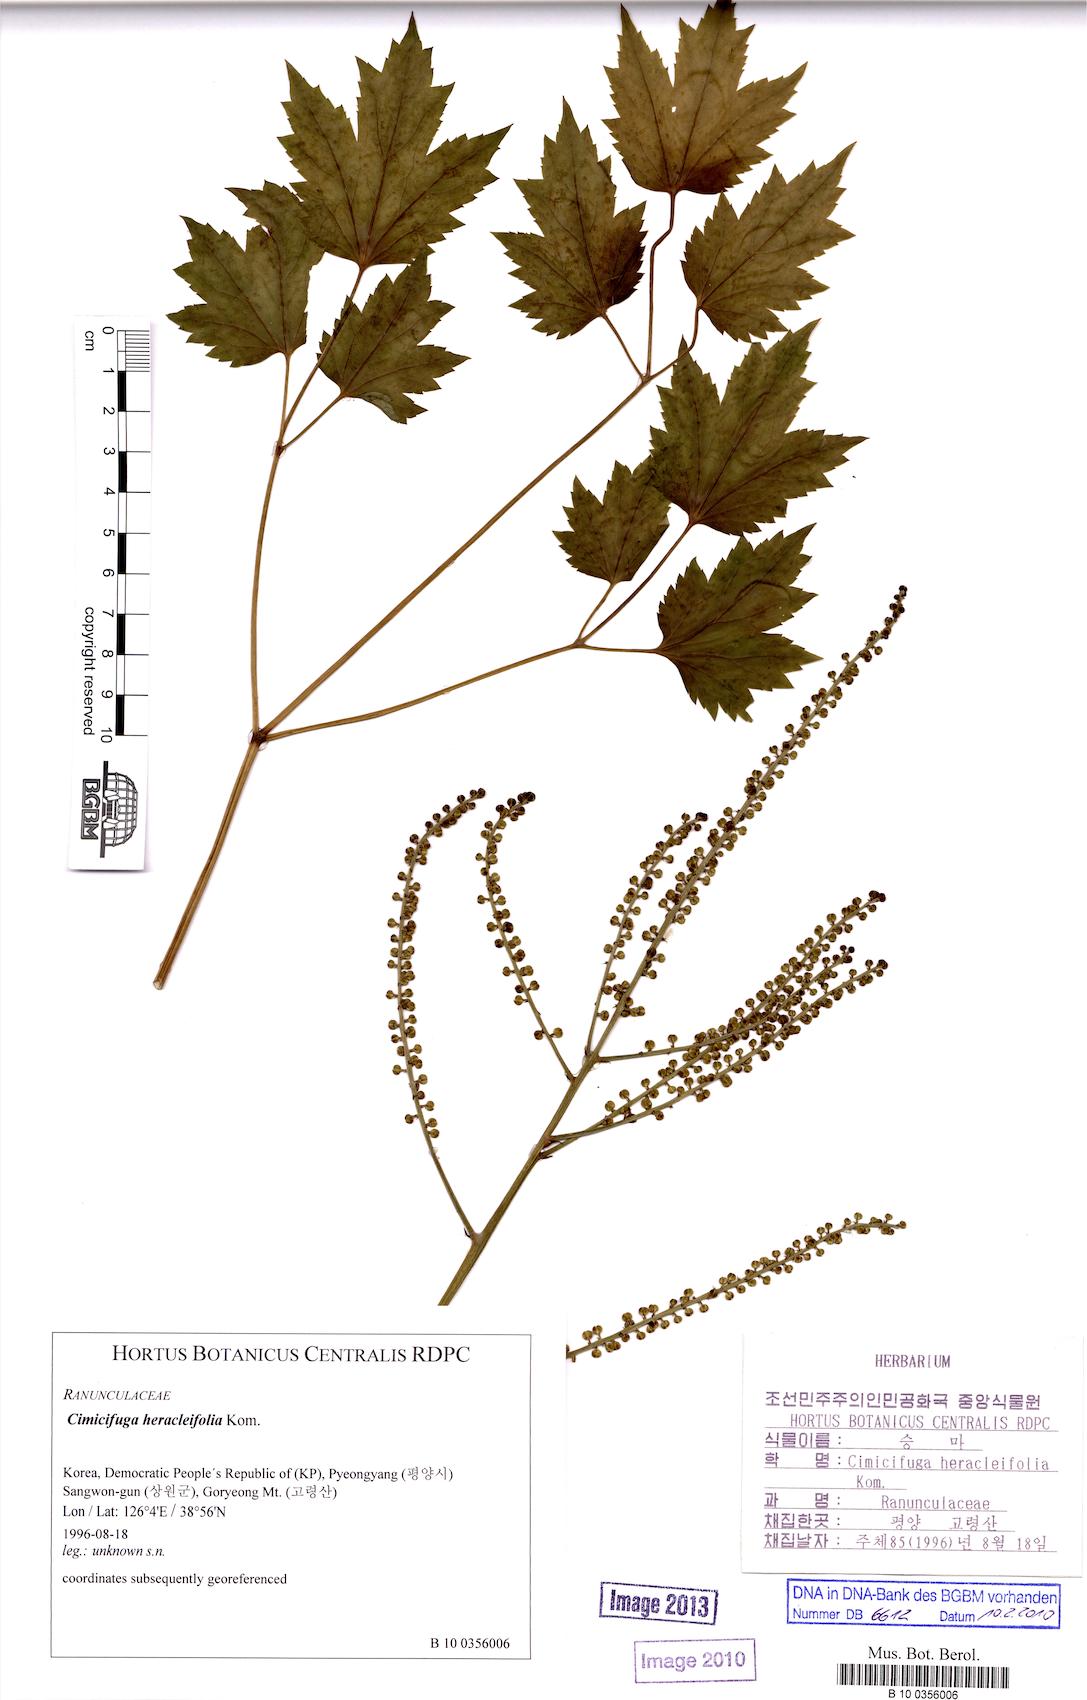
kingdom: Plantae
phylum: Tracheophyta
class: Magnoliopsida
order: Ranunculales
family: Ranunculaceae
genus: Actaea
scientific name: Actaea heracleifolia
